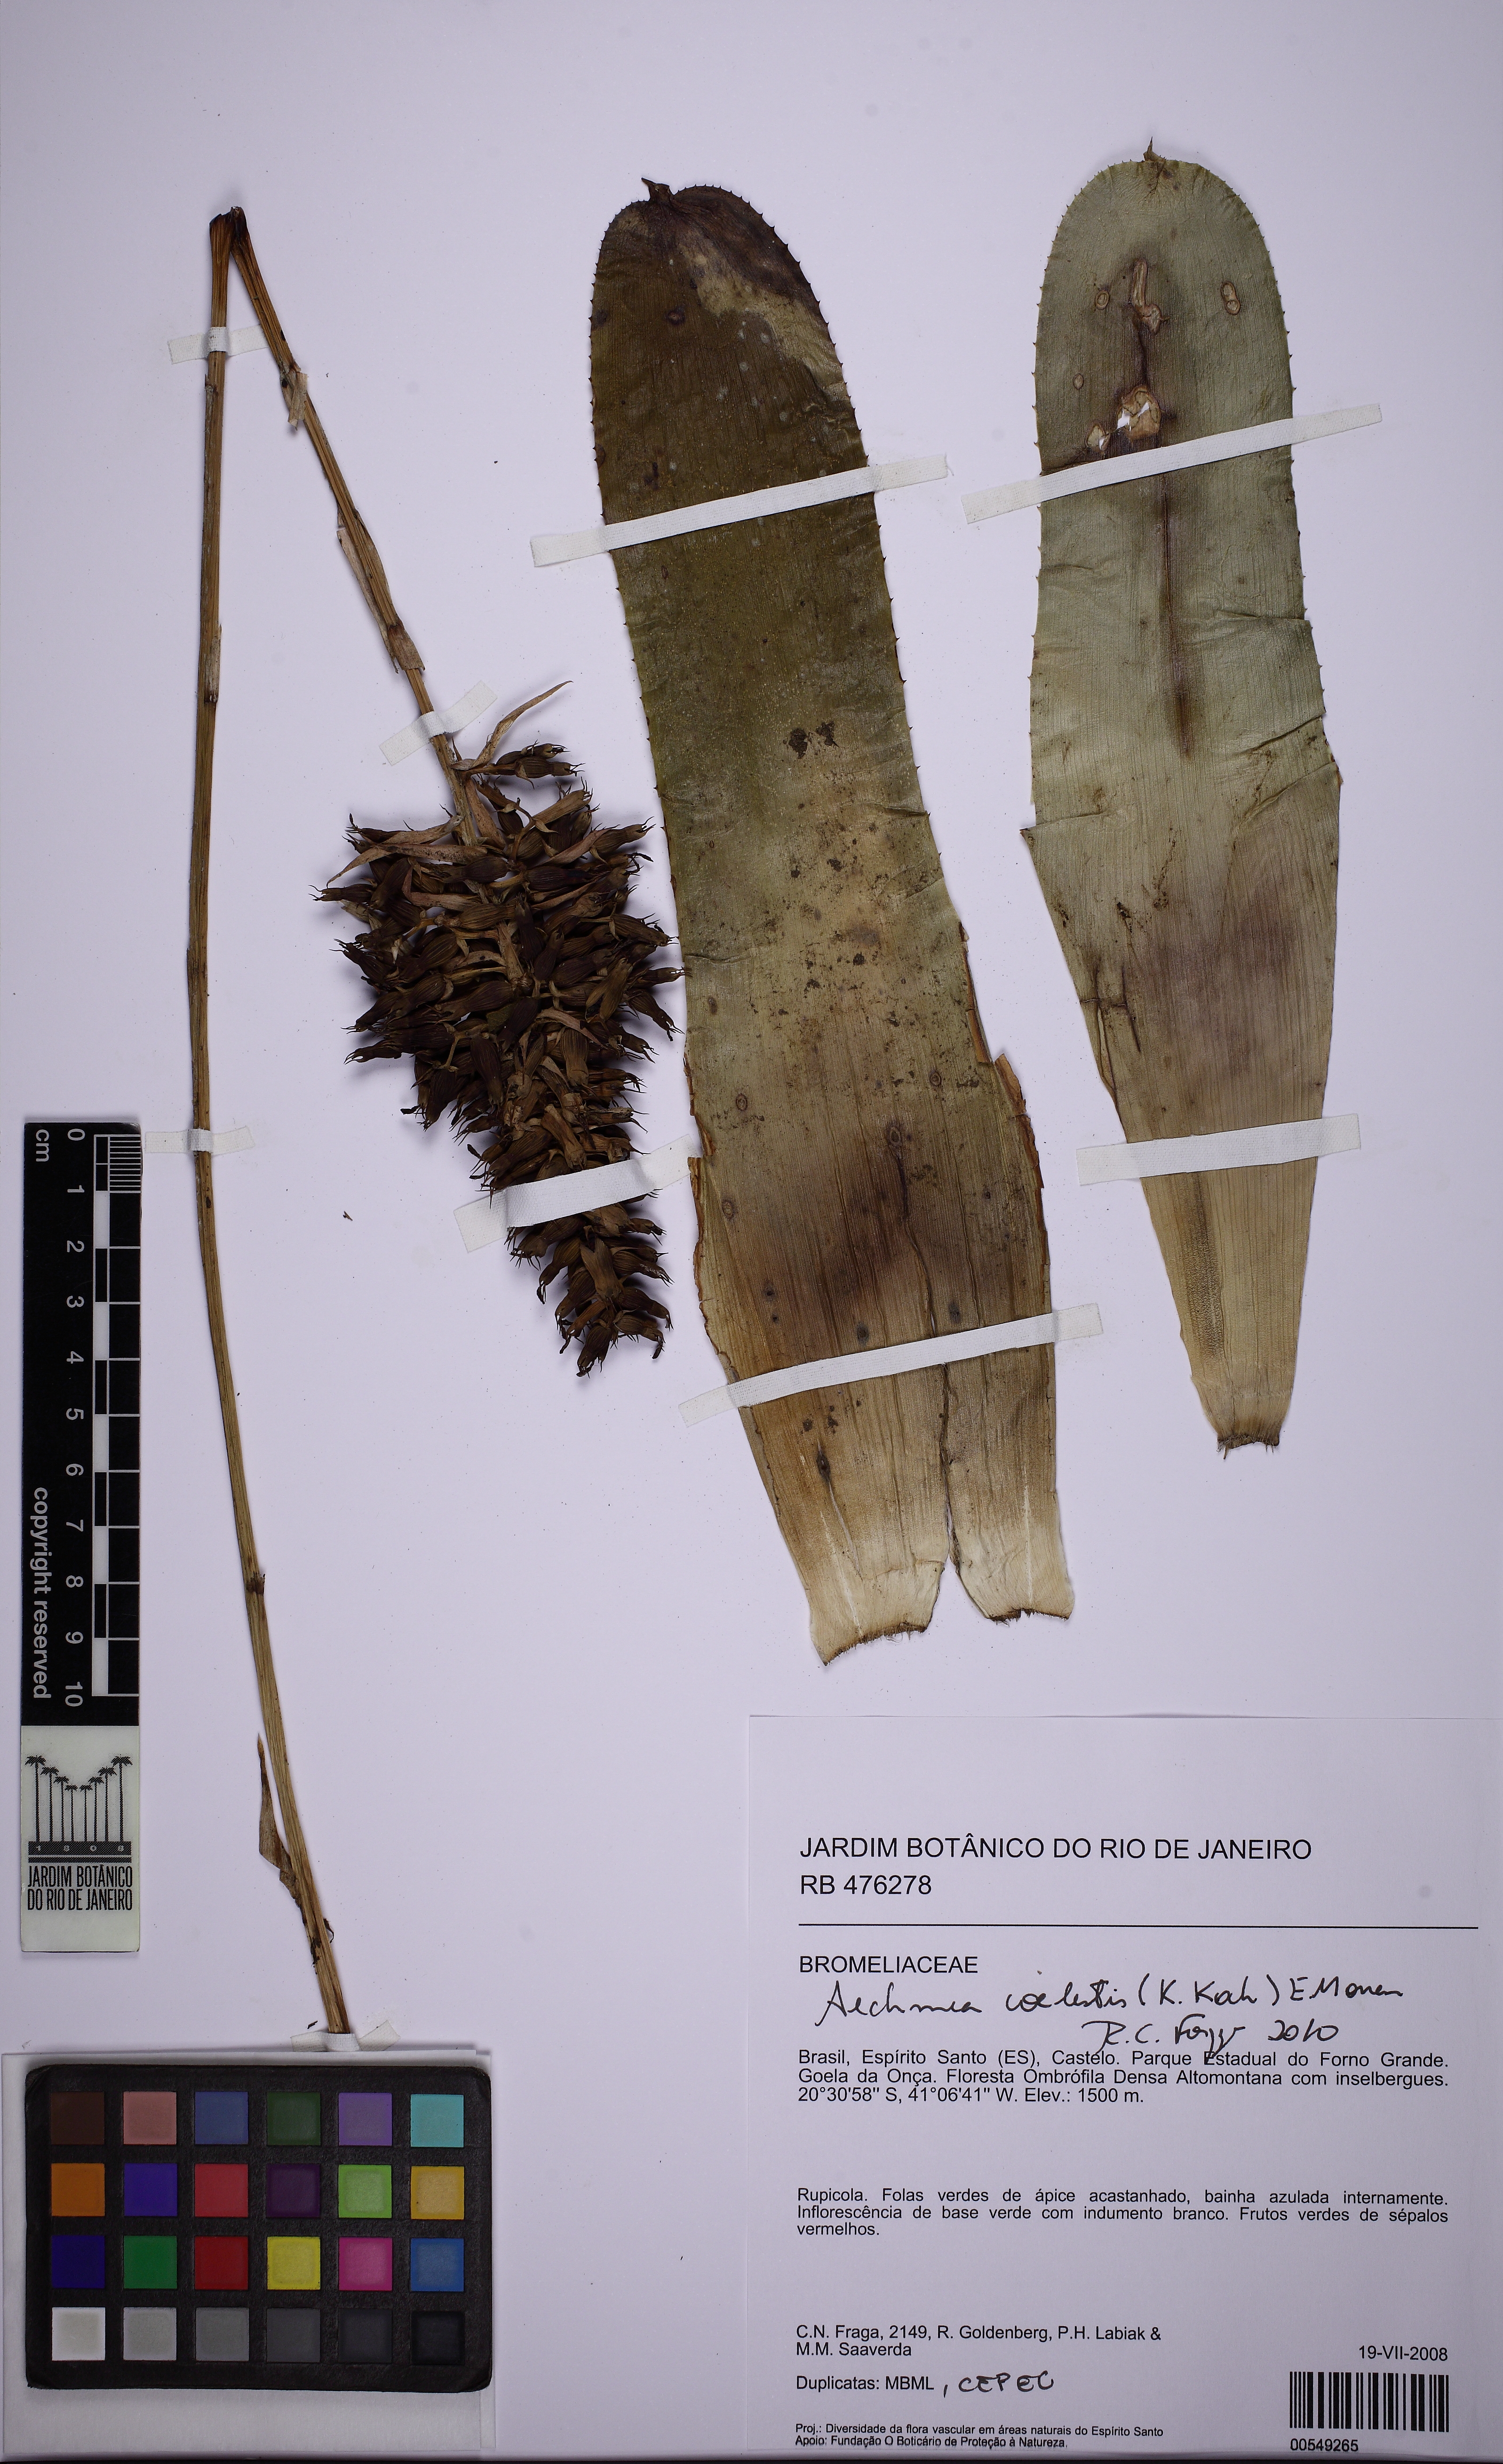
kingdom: Plantae
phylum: Tracheophyta
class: Liliopsida
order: Poales
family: Bromeliaceae
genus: Aechmea
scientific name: Aechmea coelestis
